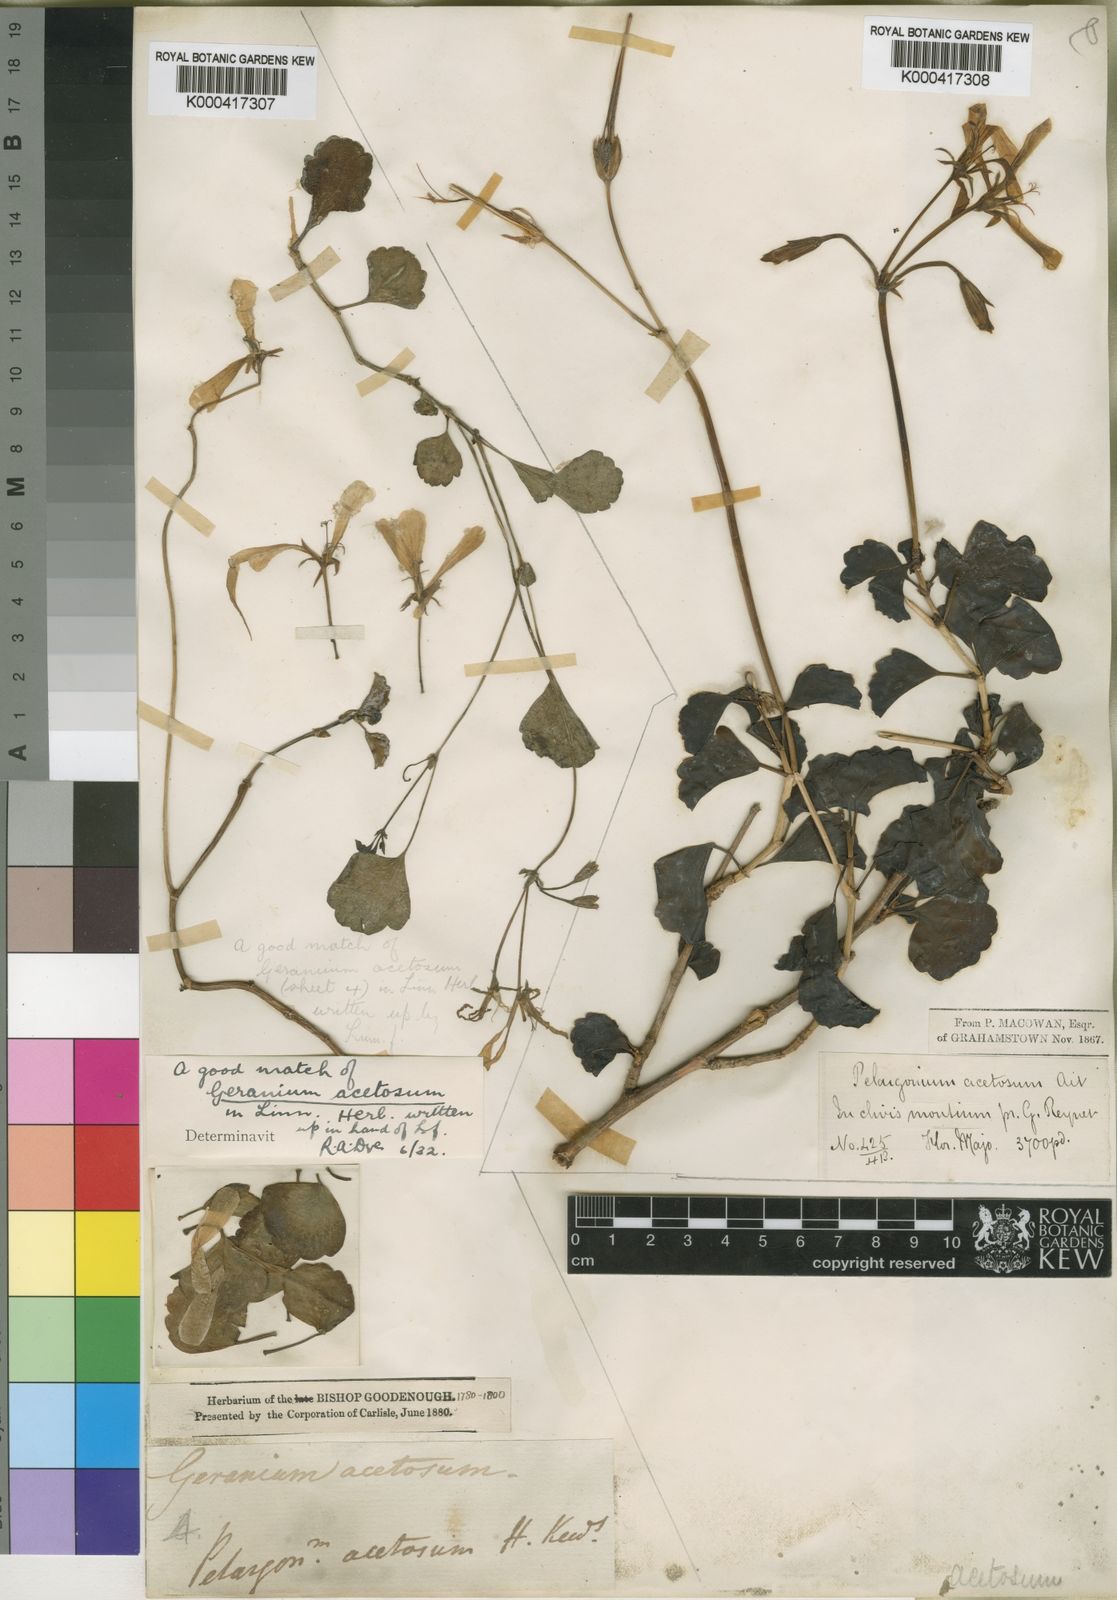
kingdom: Plantae
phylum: Tracheophyta
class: Magnoliopsida
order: Geraniales
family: Geraniaceae
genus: Pelargonium
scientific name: Pelargonium
